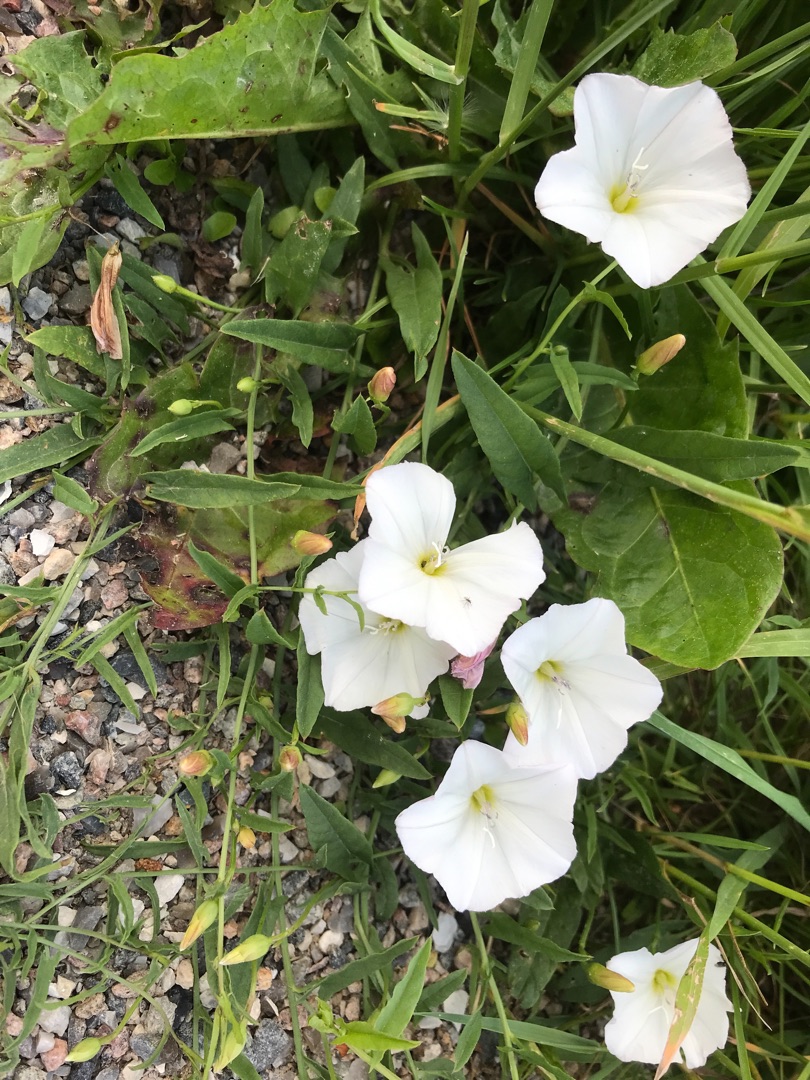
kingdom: Plantae
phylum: Tracheophyta
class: Magnoliopsida
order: Solanales
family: Convolvulaceae
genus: Convolvulus
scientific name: Convolvulus arvensis
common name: Ager-snerle
